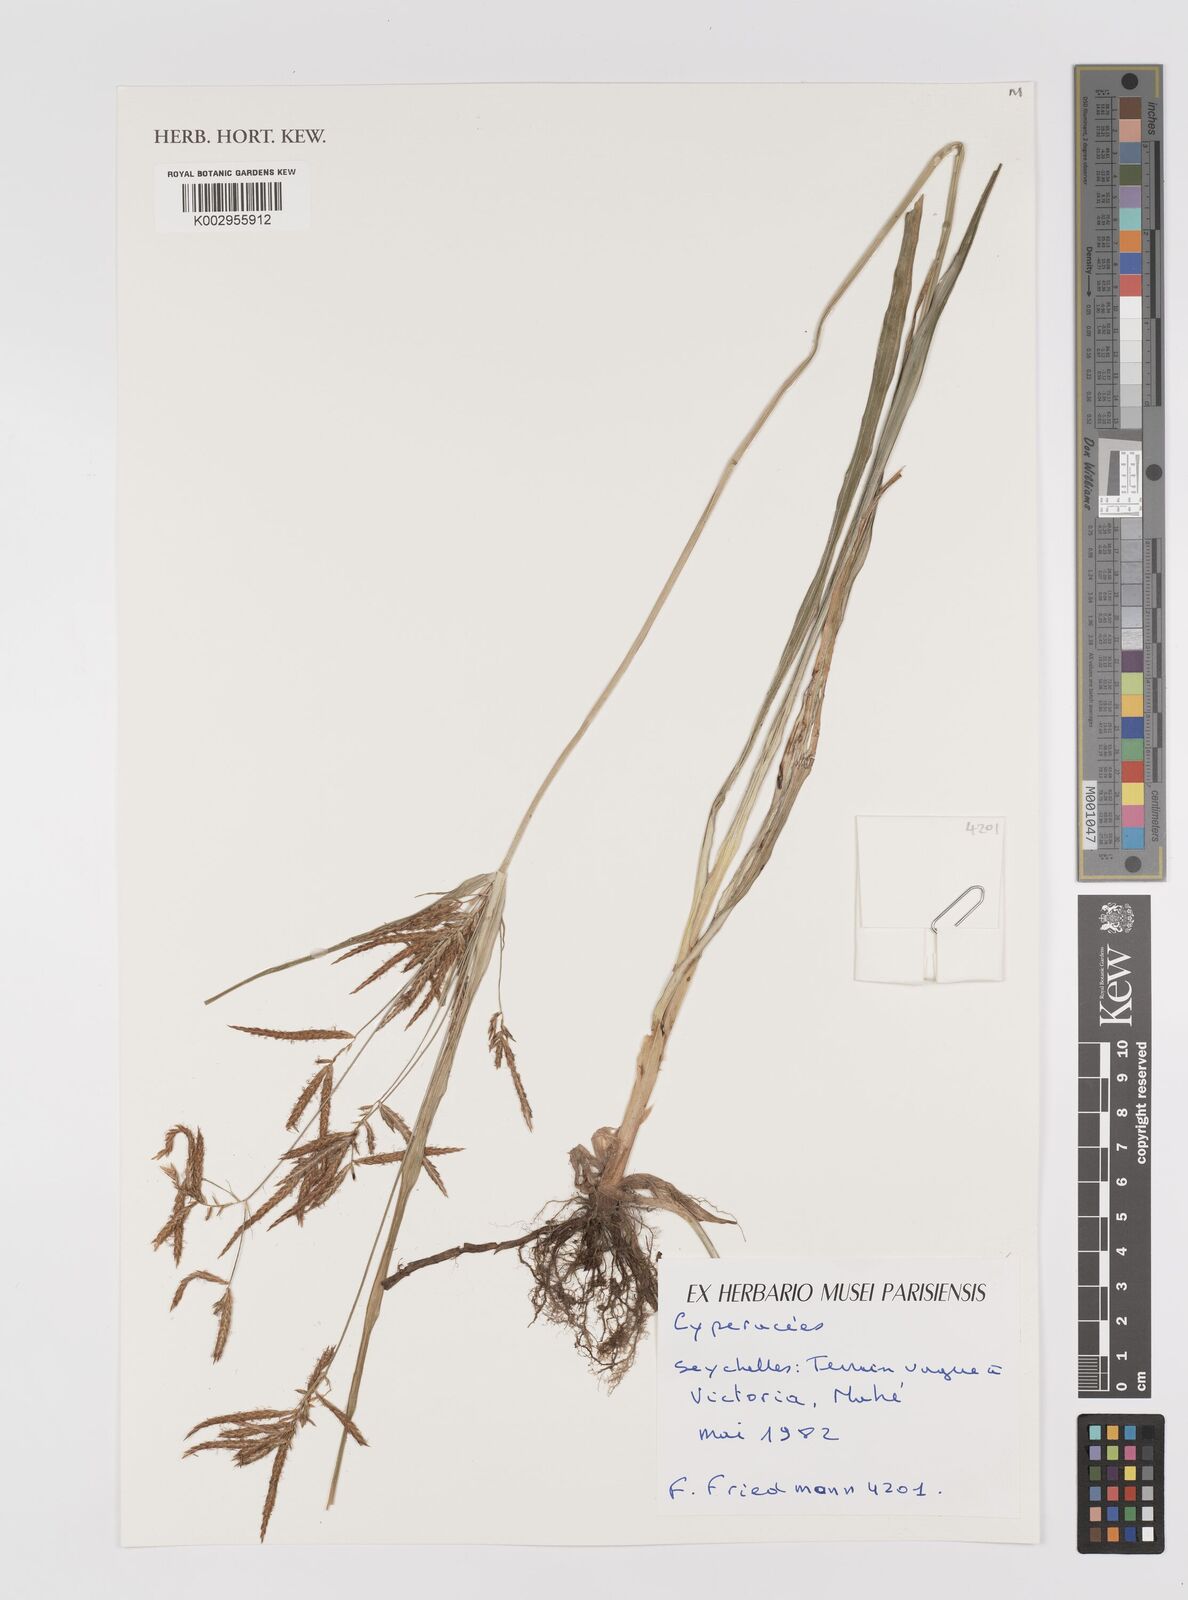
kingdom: Plantae
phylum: Tracheophyta
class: Liliopsida
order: Poales
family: Cyperaceae
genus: Cyperus
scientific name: Cyperus
